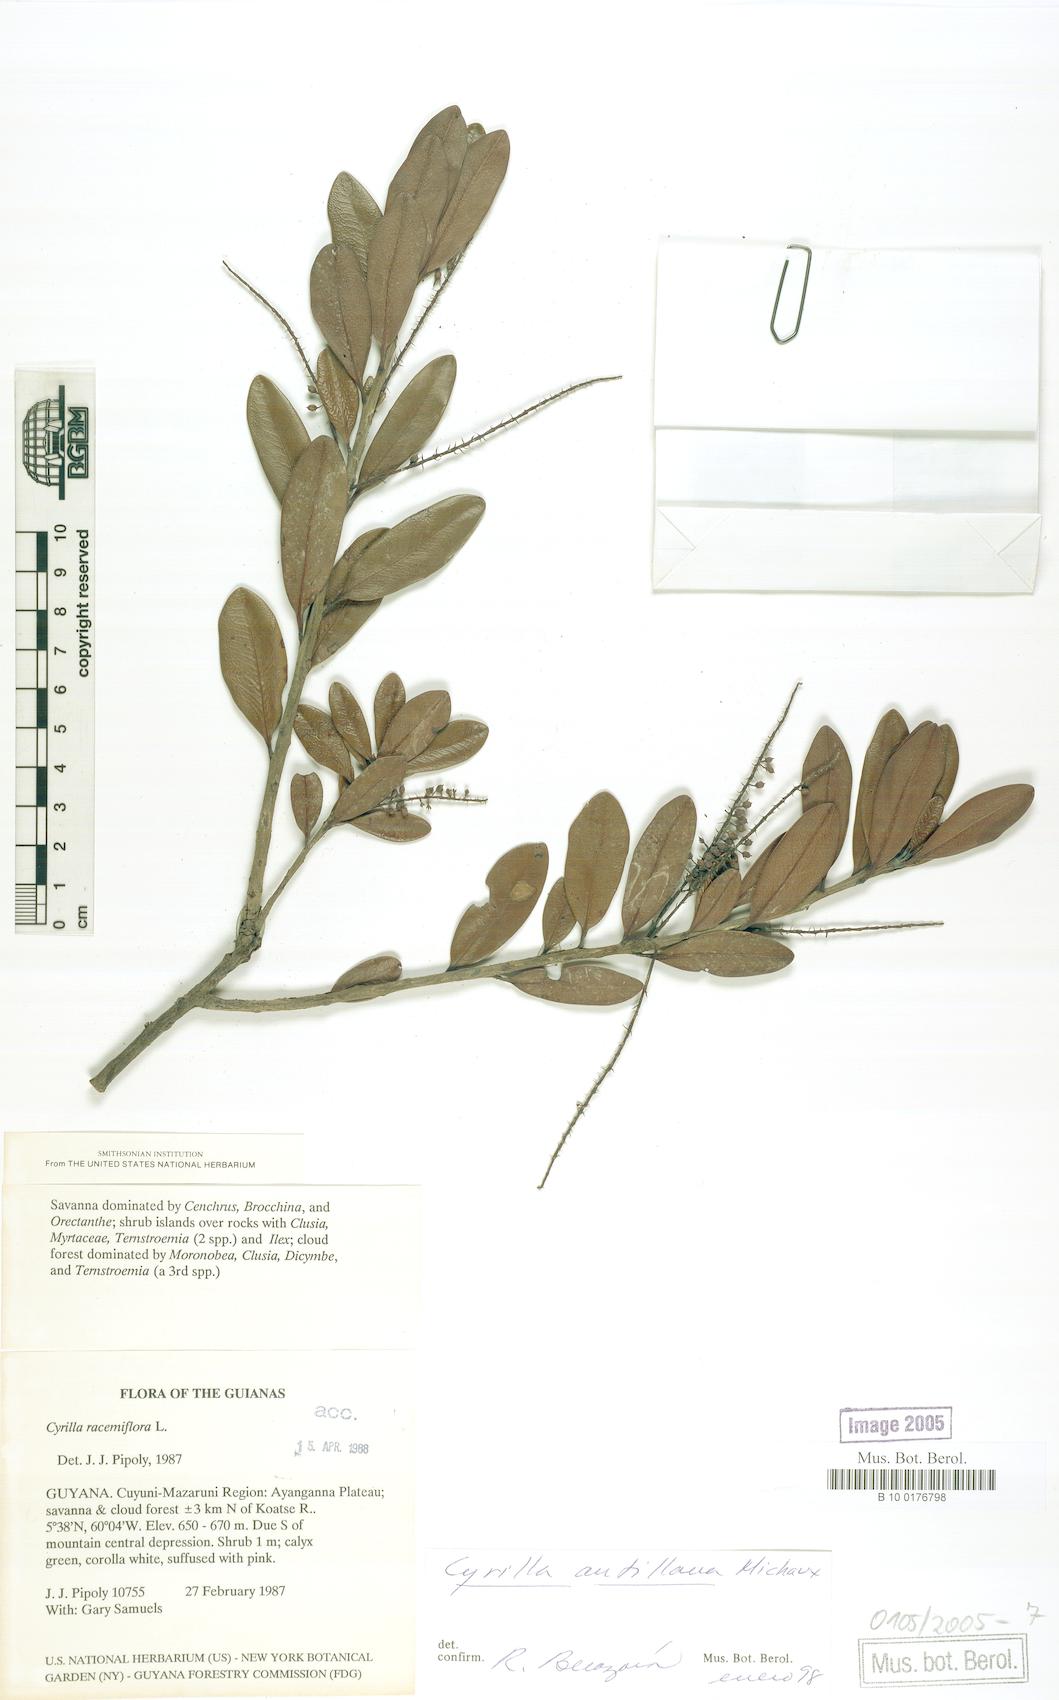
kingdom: Plantae
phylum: Tracheophyta
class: Magnoliopsida
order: Ericales
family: Cyrillaceae
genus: Cyrilla
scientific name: Cyrilla racemiflora
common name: Black titi
